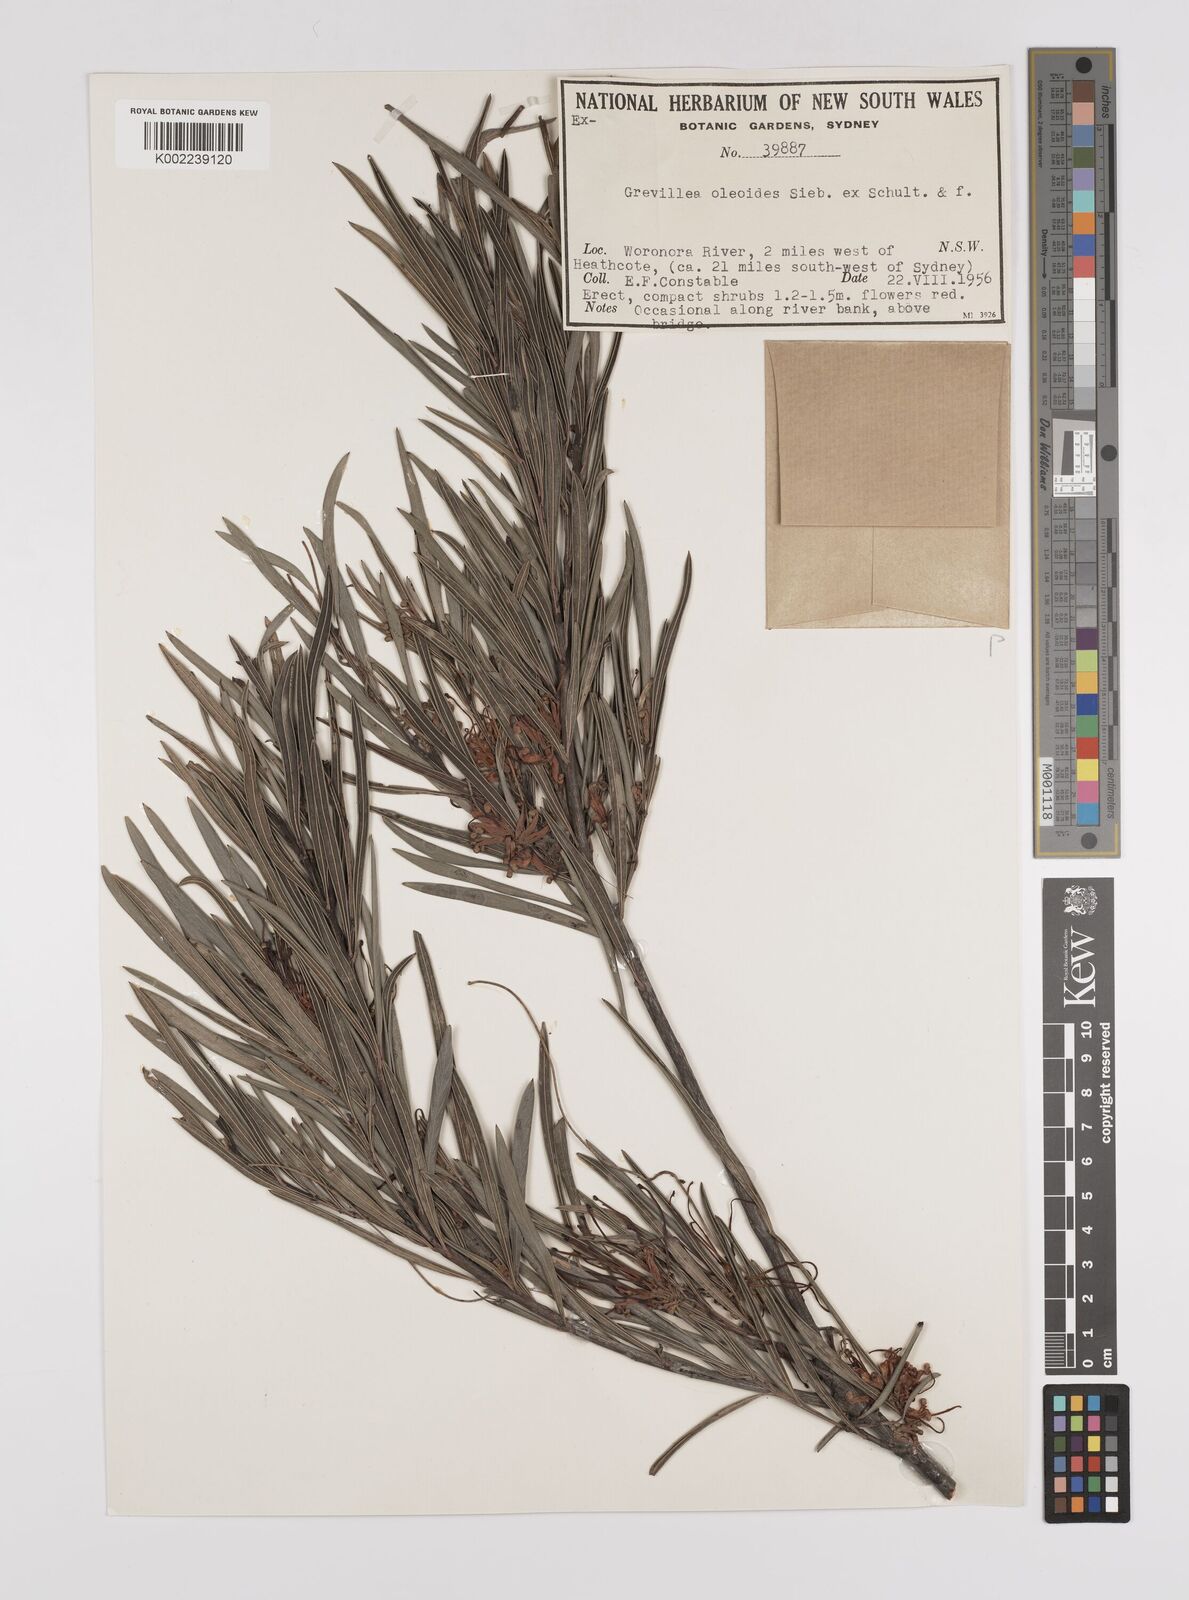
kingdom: Plantae
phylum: Tracheophyta
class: Magnoliopsida
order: Proteales
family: Proteaceae
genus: Grevillea
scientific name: Grevillea oleoides
